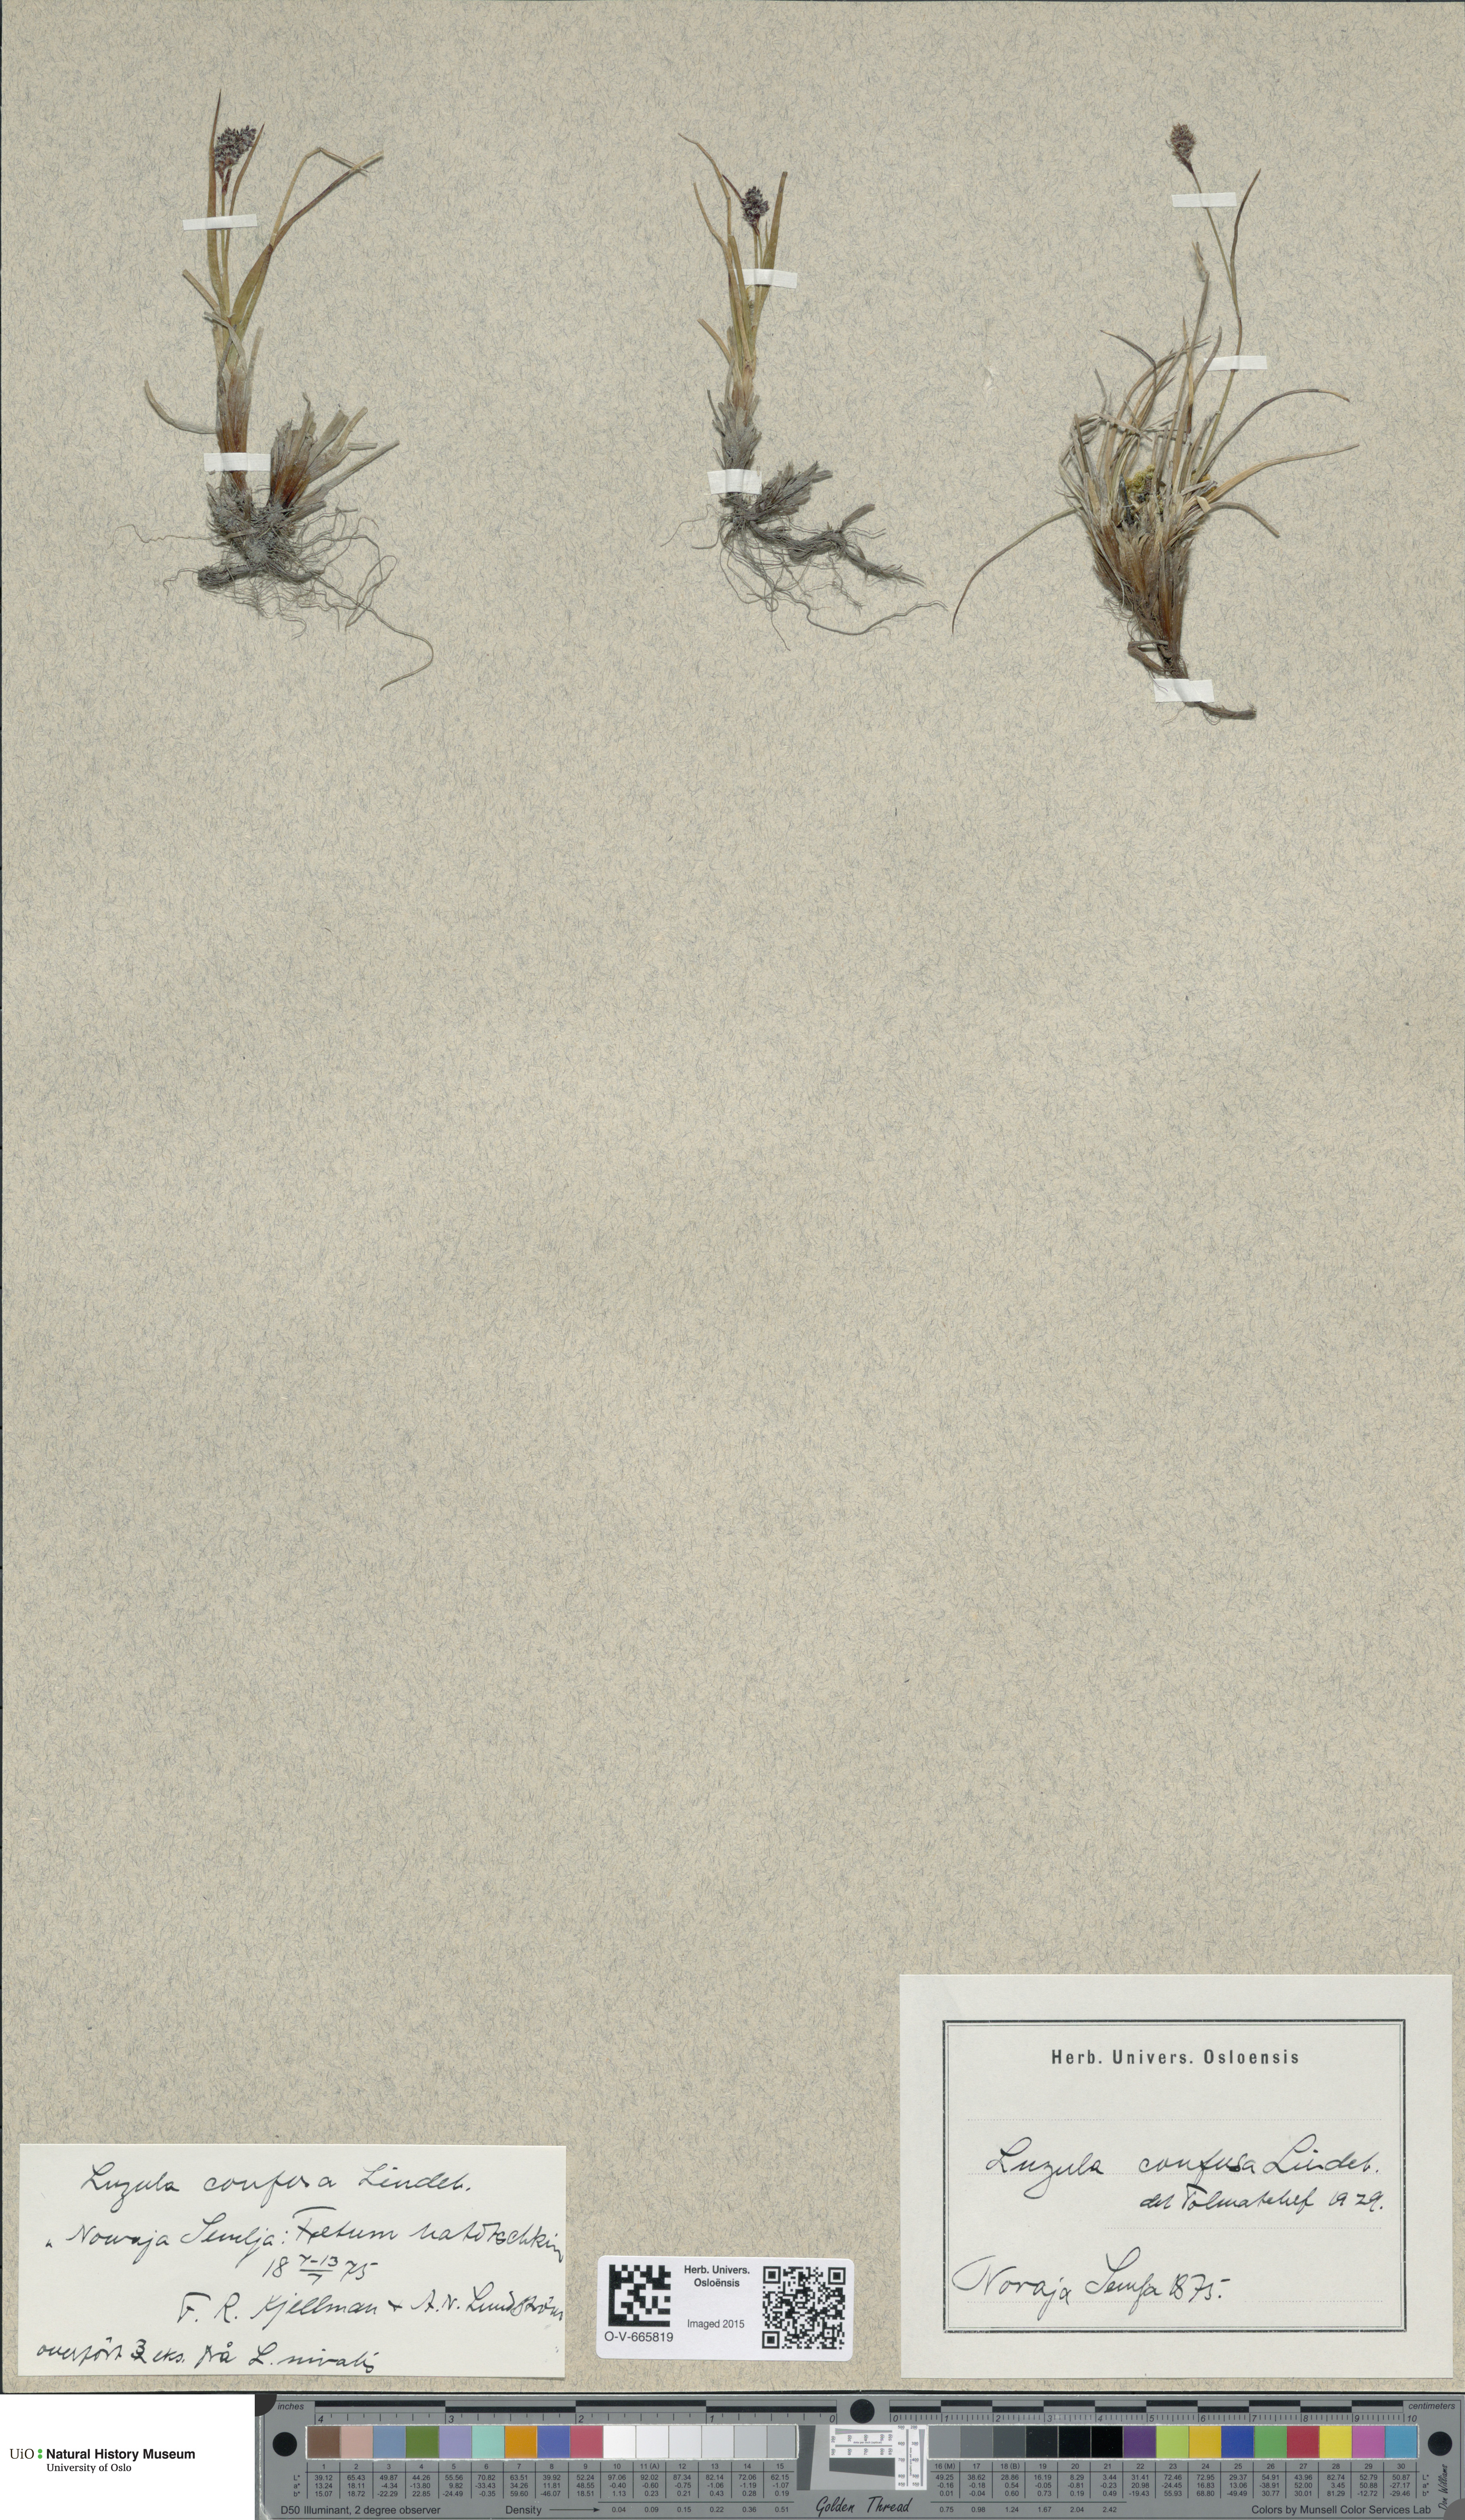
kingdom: Plantae
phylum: Tracheophyta
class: Liliopsida
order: Poales
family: Juncaceae
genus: Luzula
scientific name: Luzula confusa
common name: Northern wood rush
